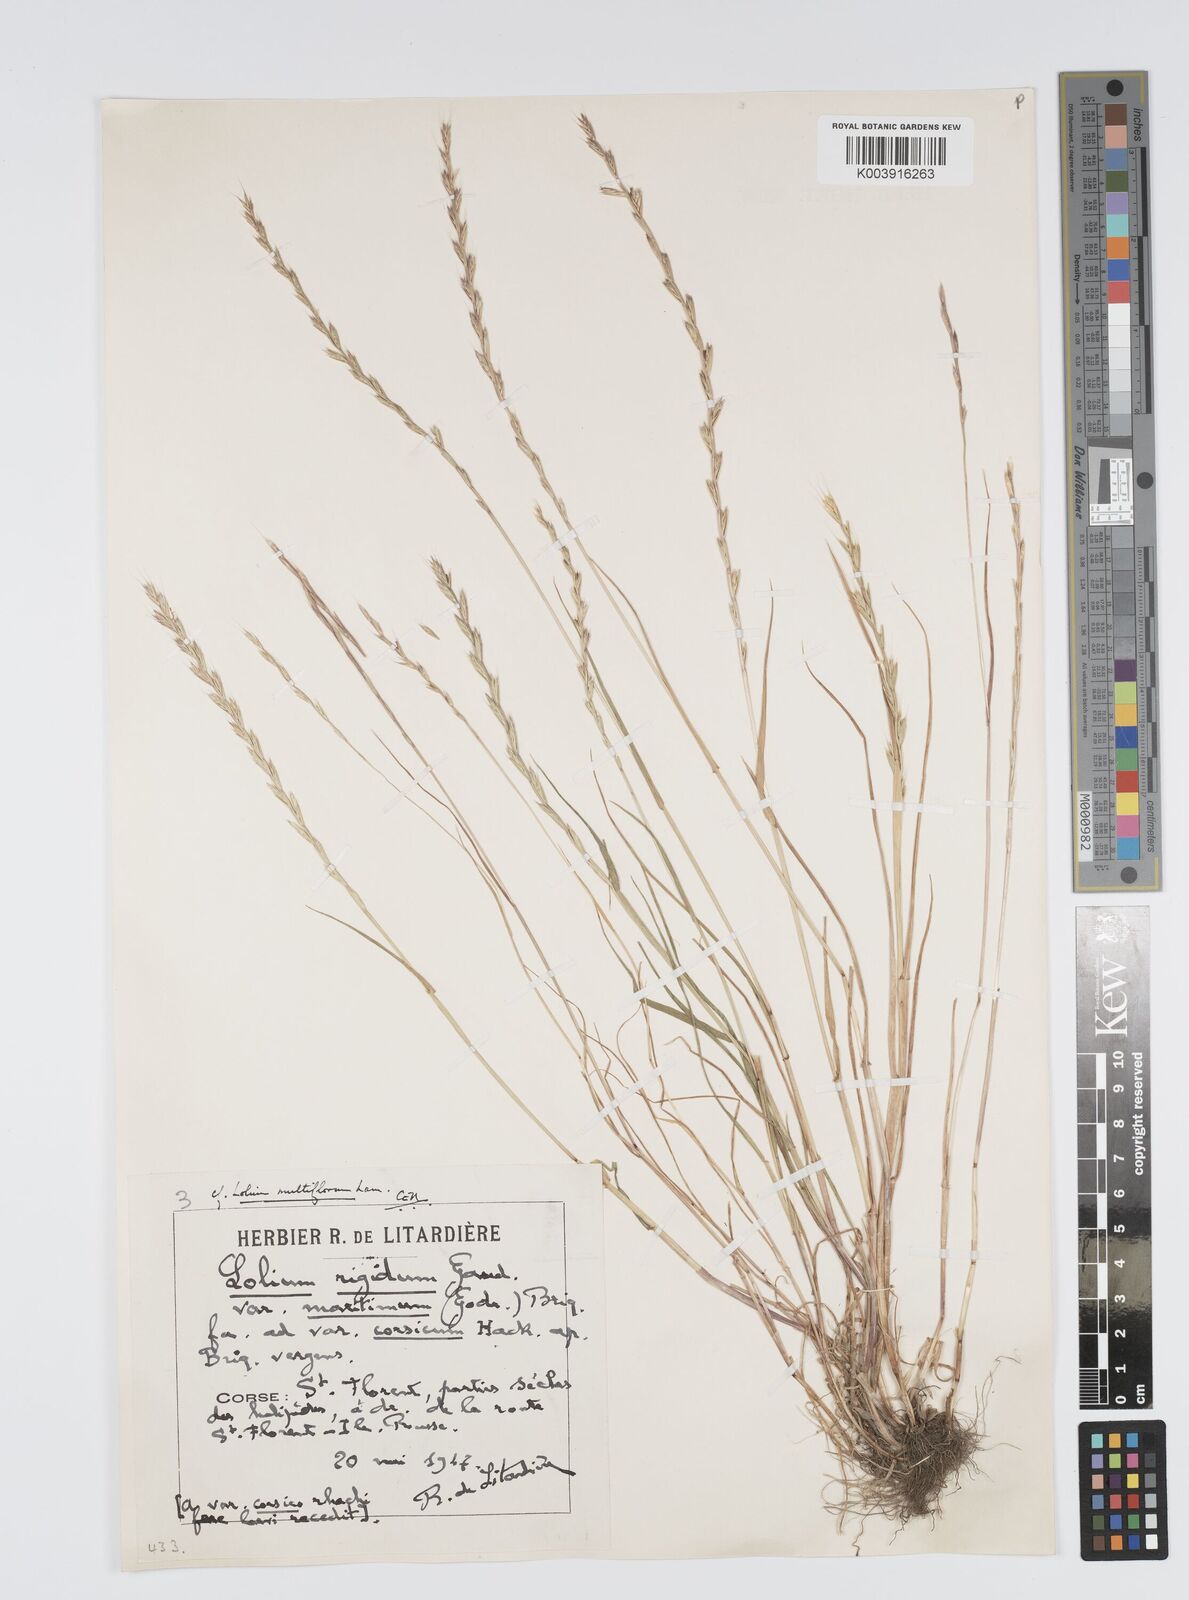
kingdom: Plantae
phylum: Tracheophyta
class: Liliopsida
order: Poales
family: Poaceae
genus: Lolium
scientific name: Lolium rigidum
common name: Wimmera ryegrass
